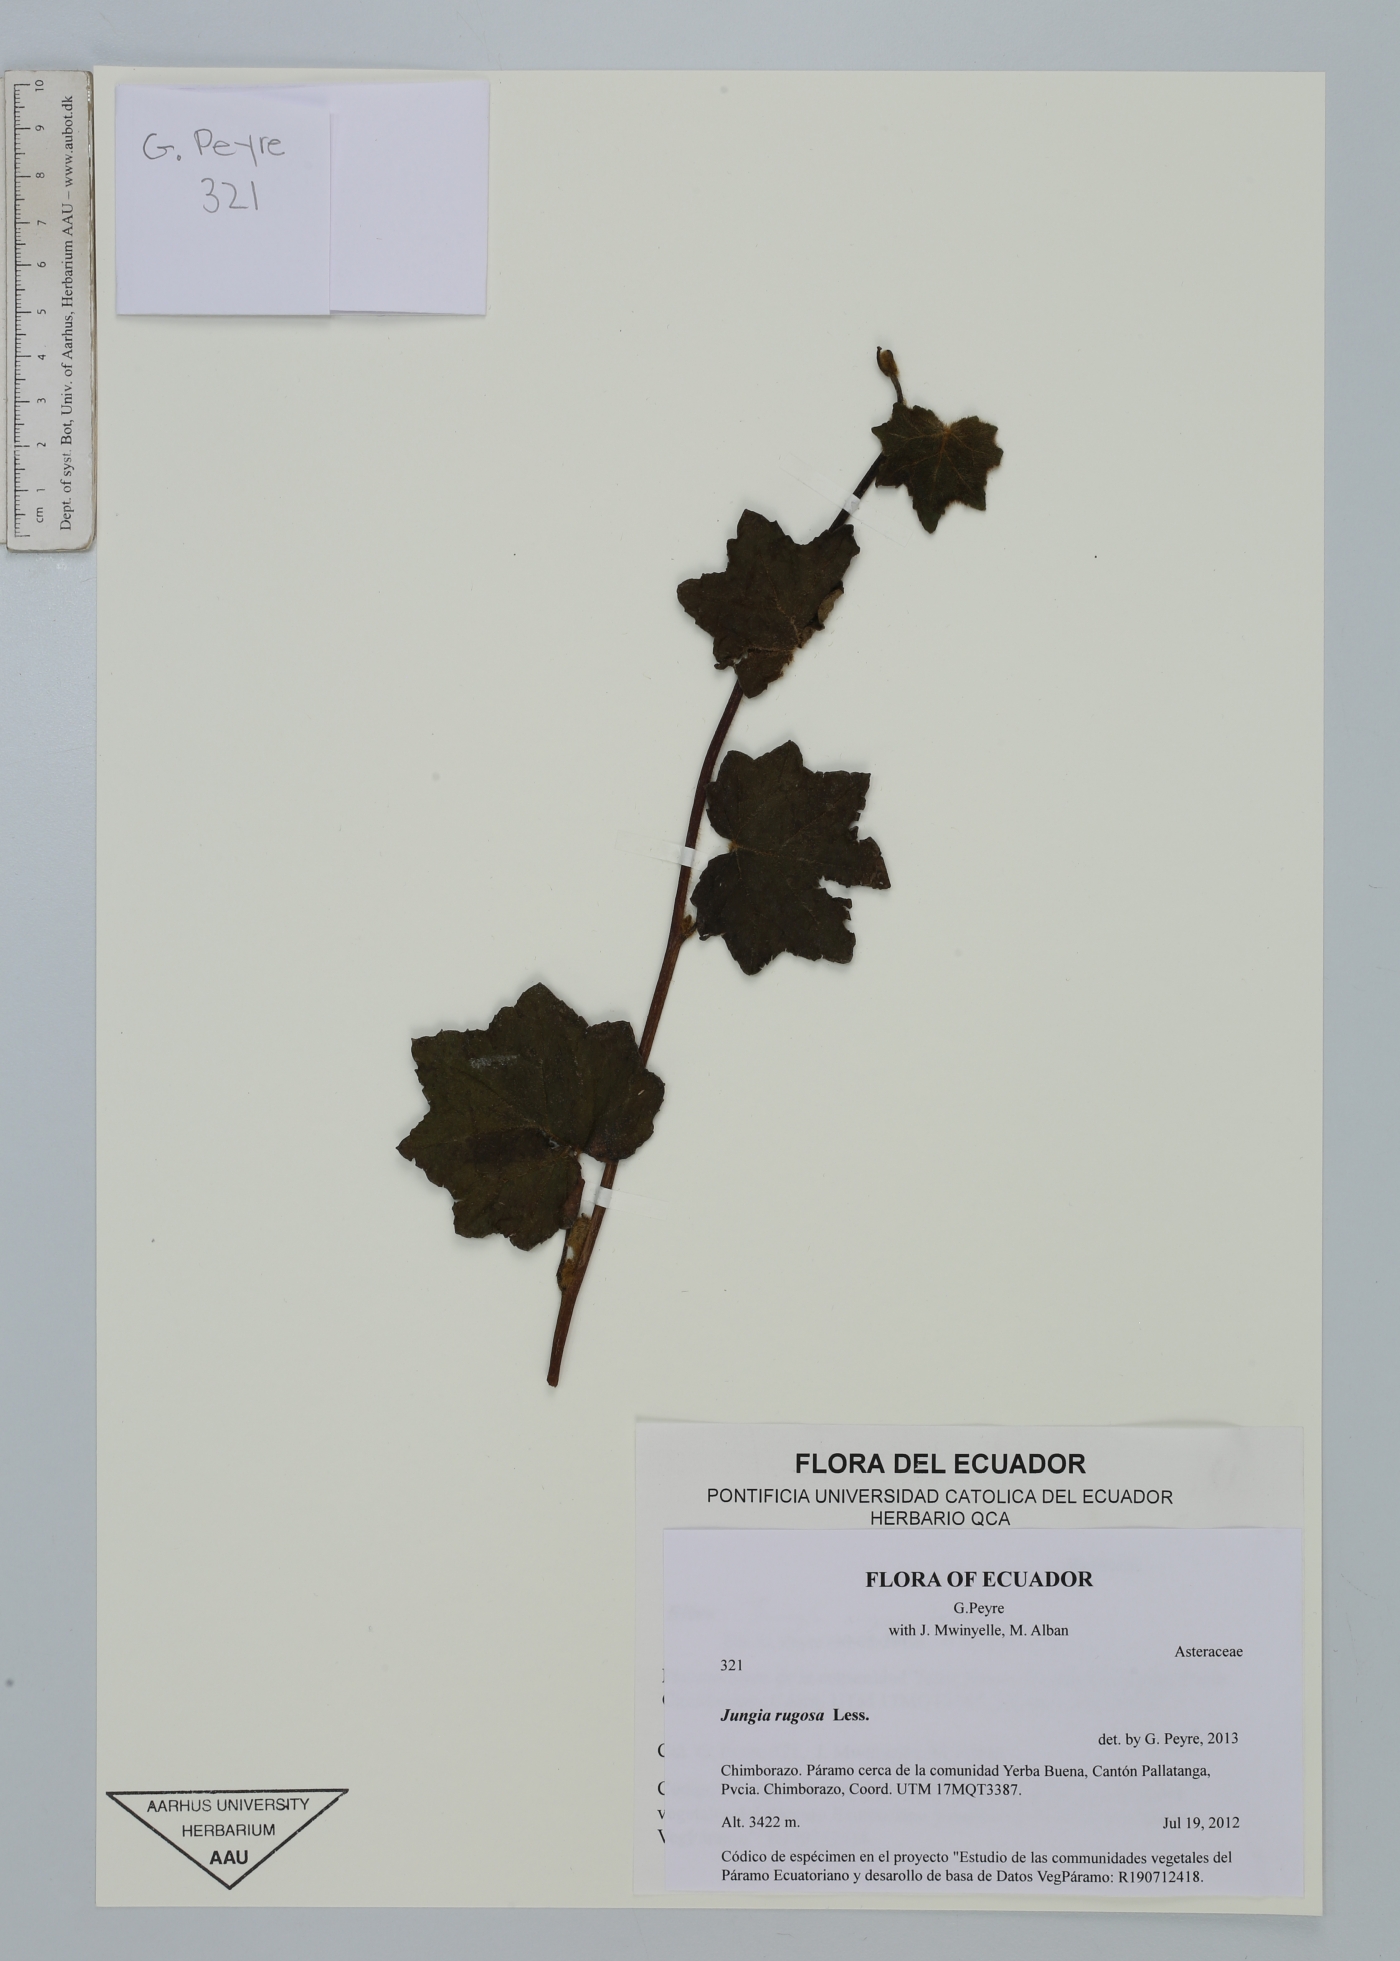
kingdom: Plantae
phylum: Tracheophyta
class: Magnoliopsida
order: Asterales
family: Asteraceae
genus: Jungia
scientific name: Jungia rugosa
